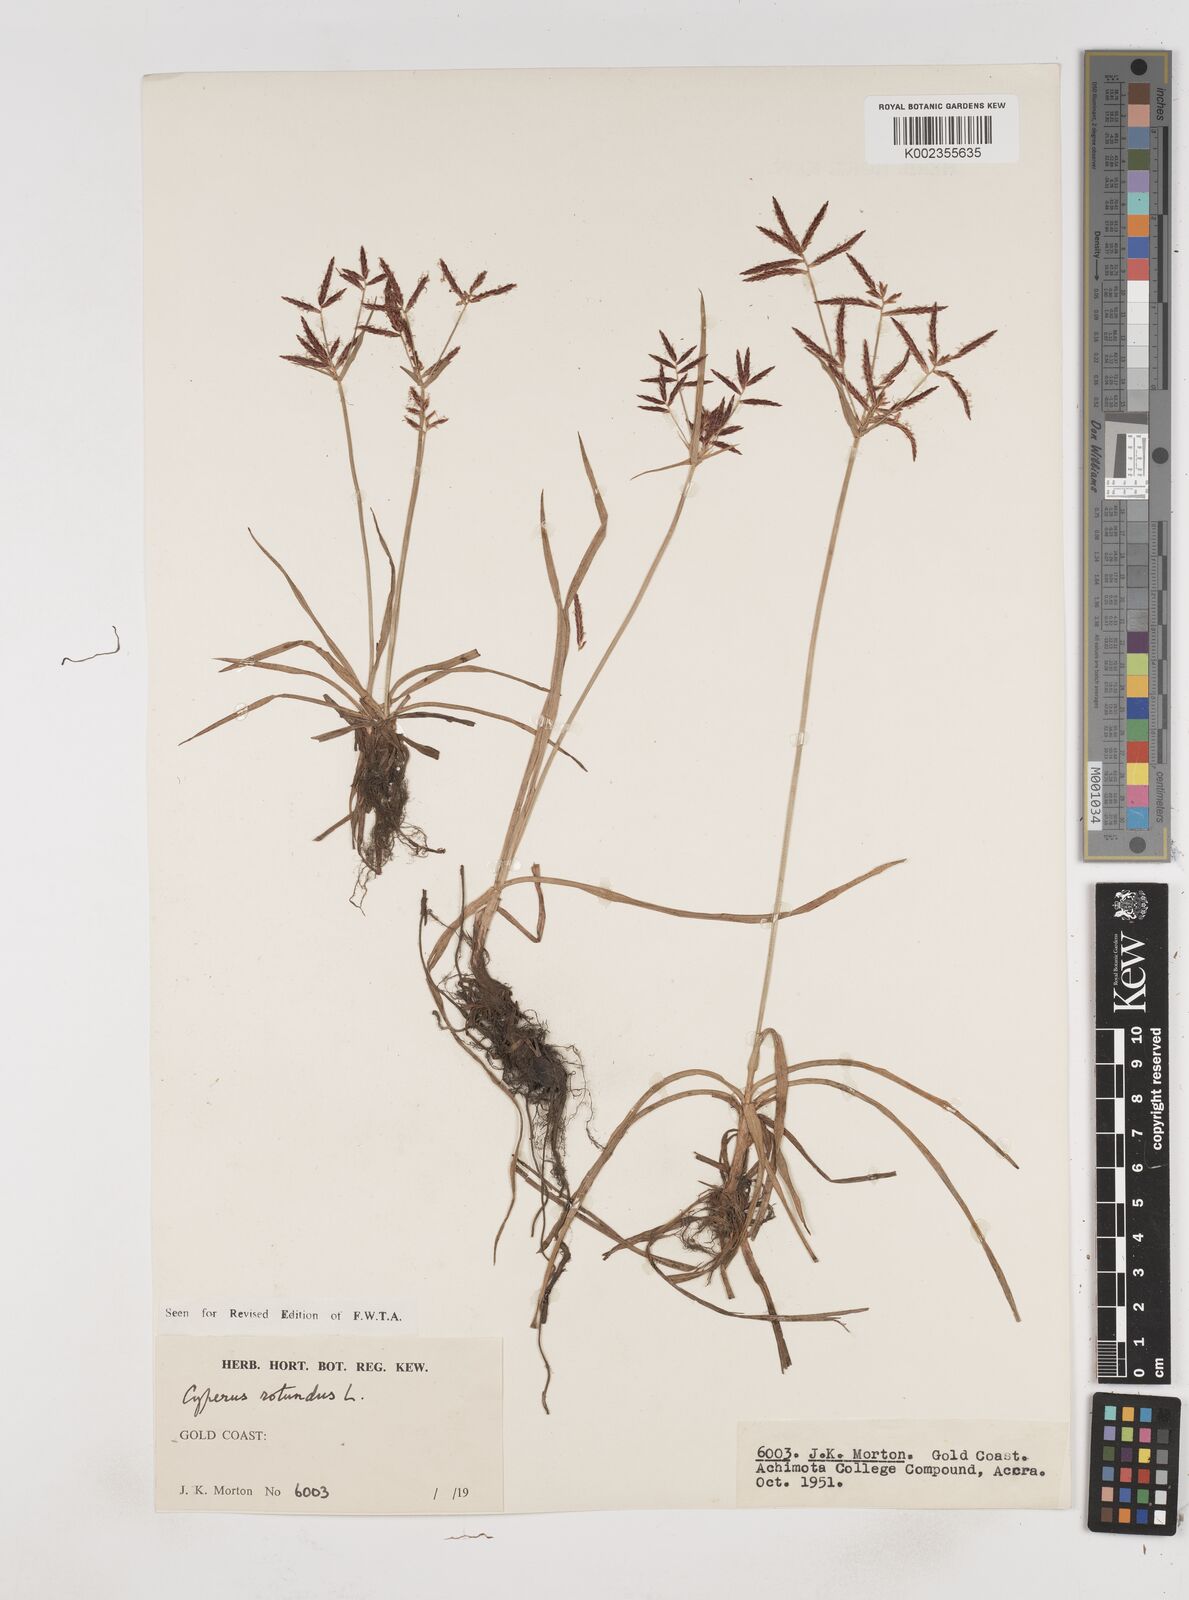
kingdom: Plantae
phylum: Tracheophyta
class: Liliopsida
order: Poales
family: Cyperaceae
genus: Cyperus
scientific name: Cyperus rotundus
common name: Nutgrass
